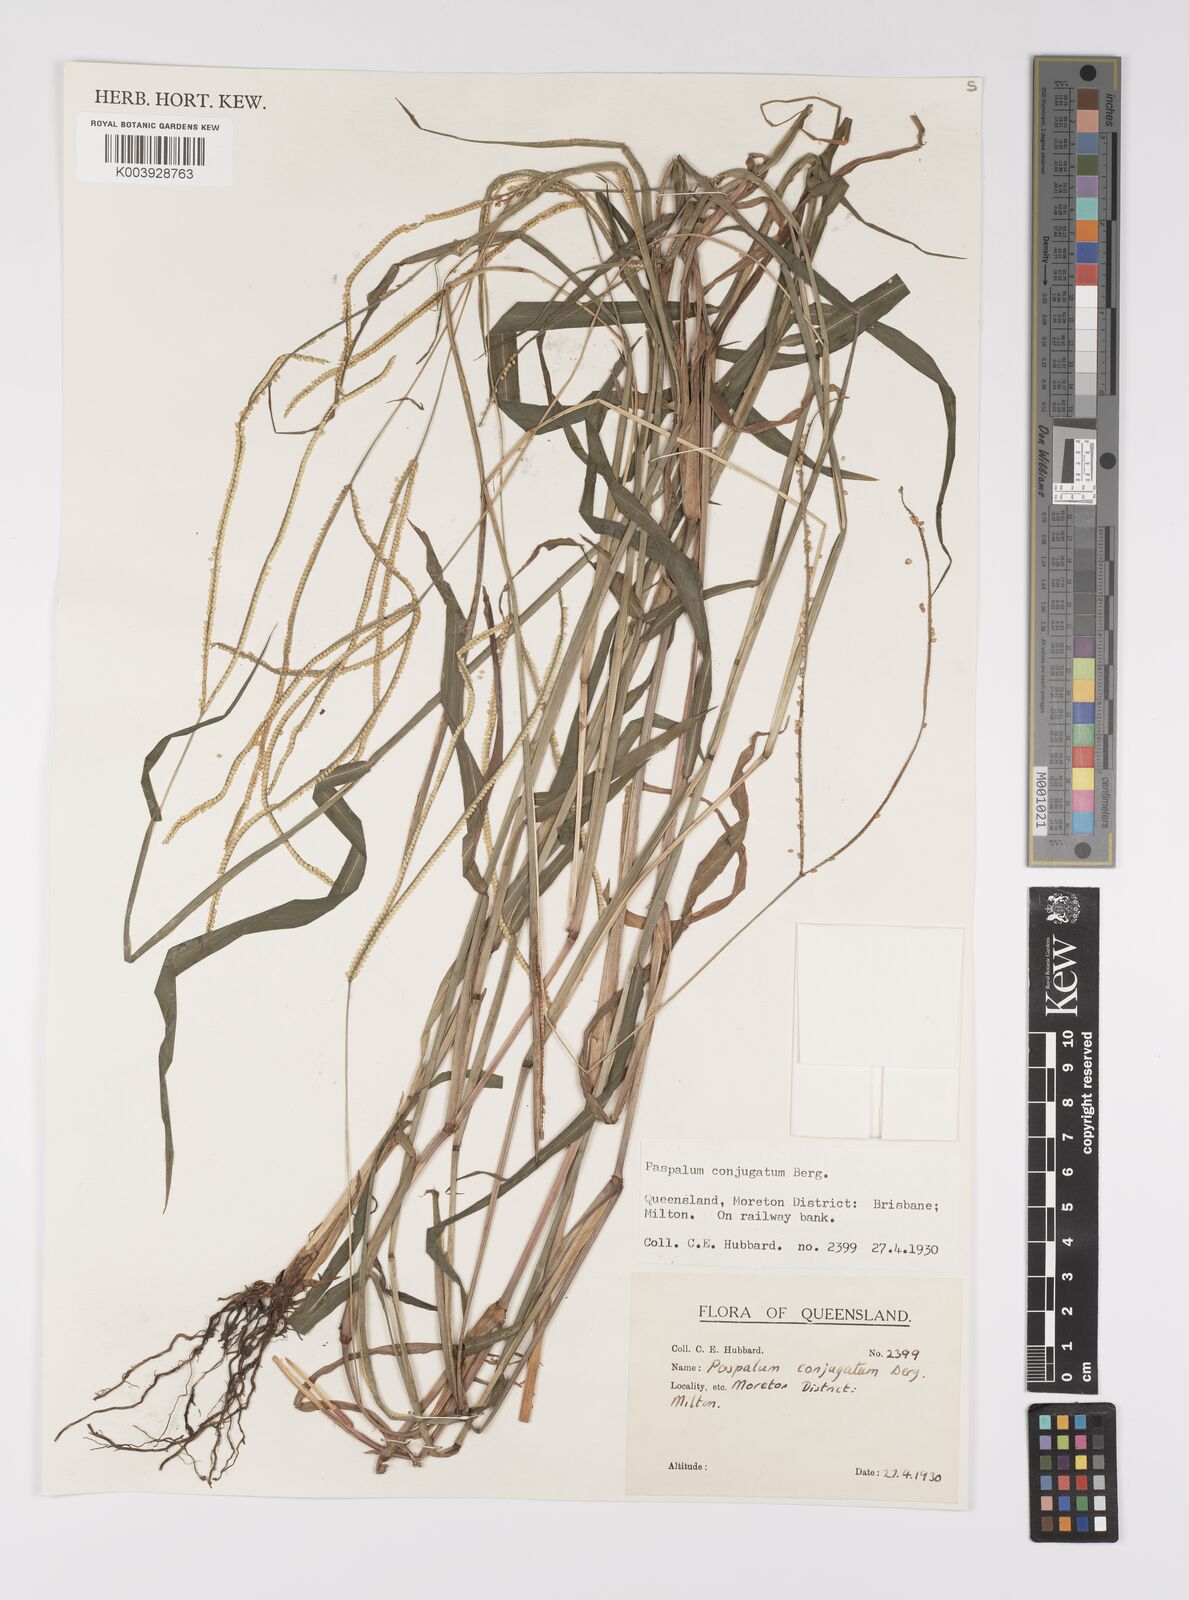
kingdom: Plantae
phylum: Tracheophyta
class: Liliopsida
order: Poales
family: Poaceae
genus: Paspalum
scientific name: Paspalum conjugatum
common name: Hilograss
